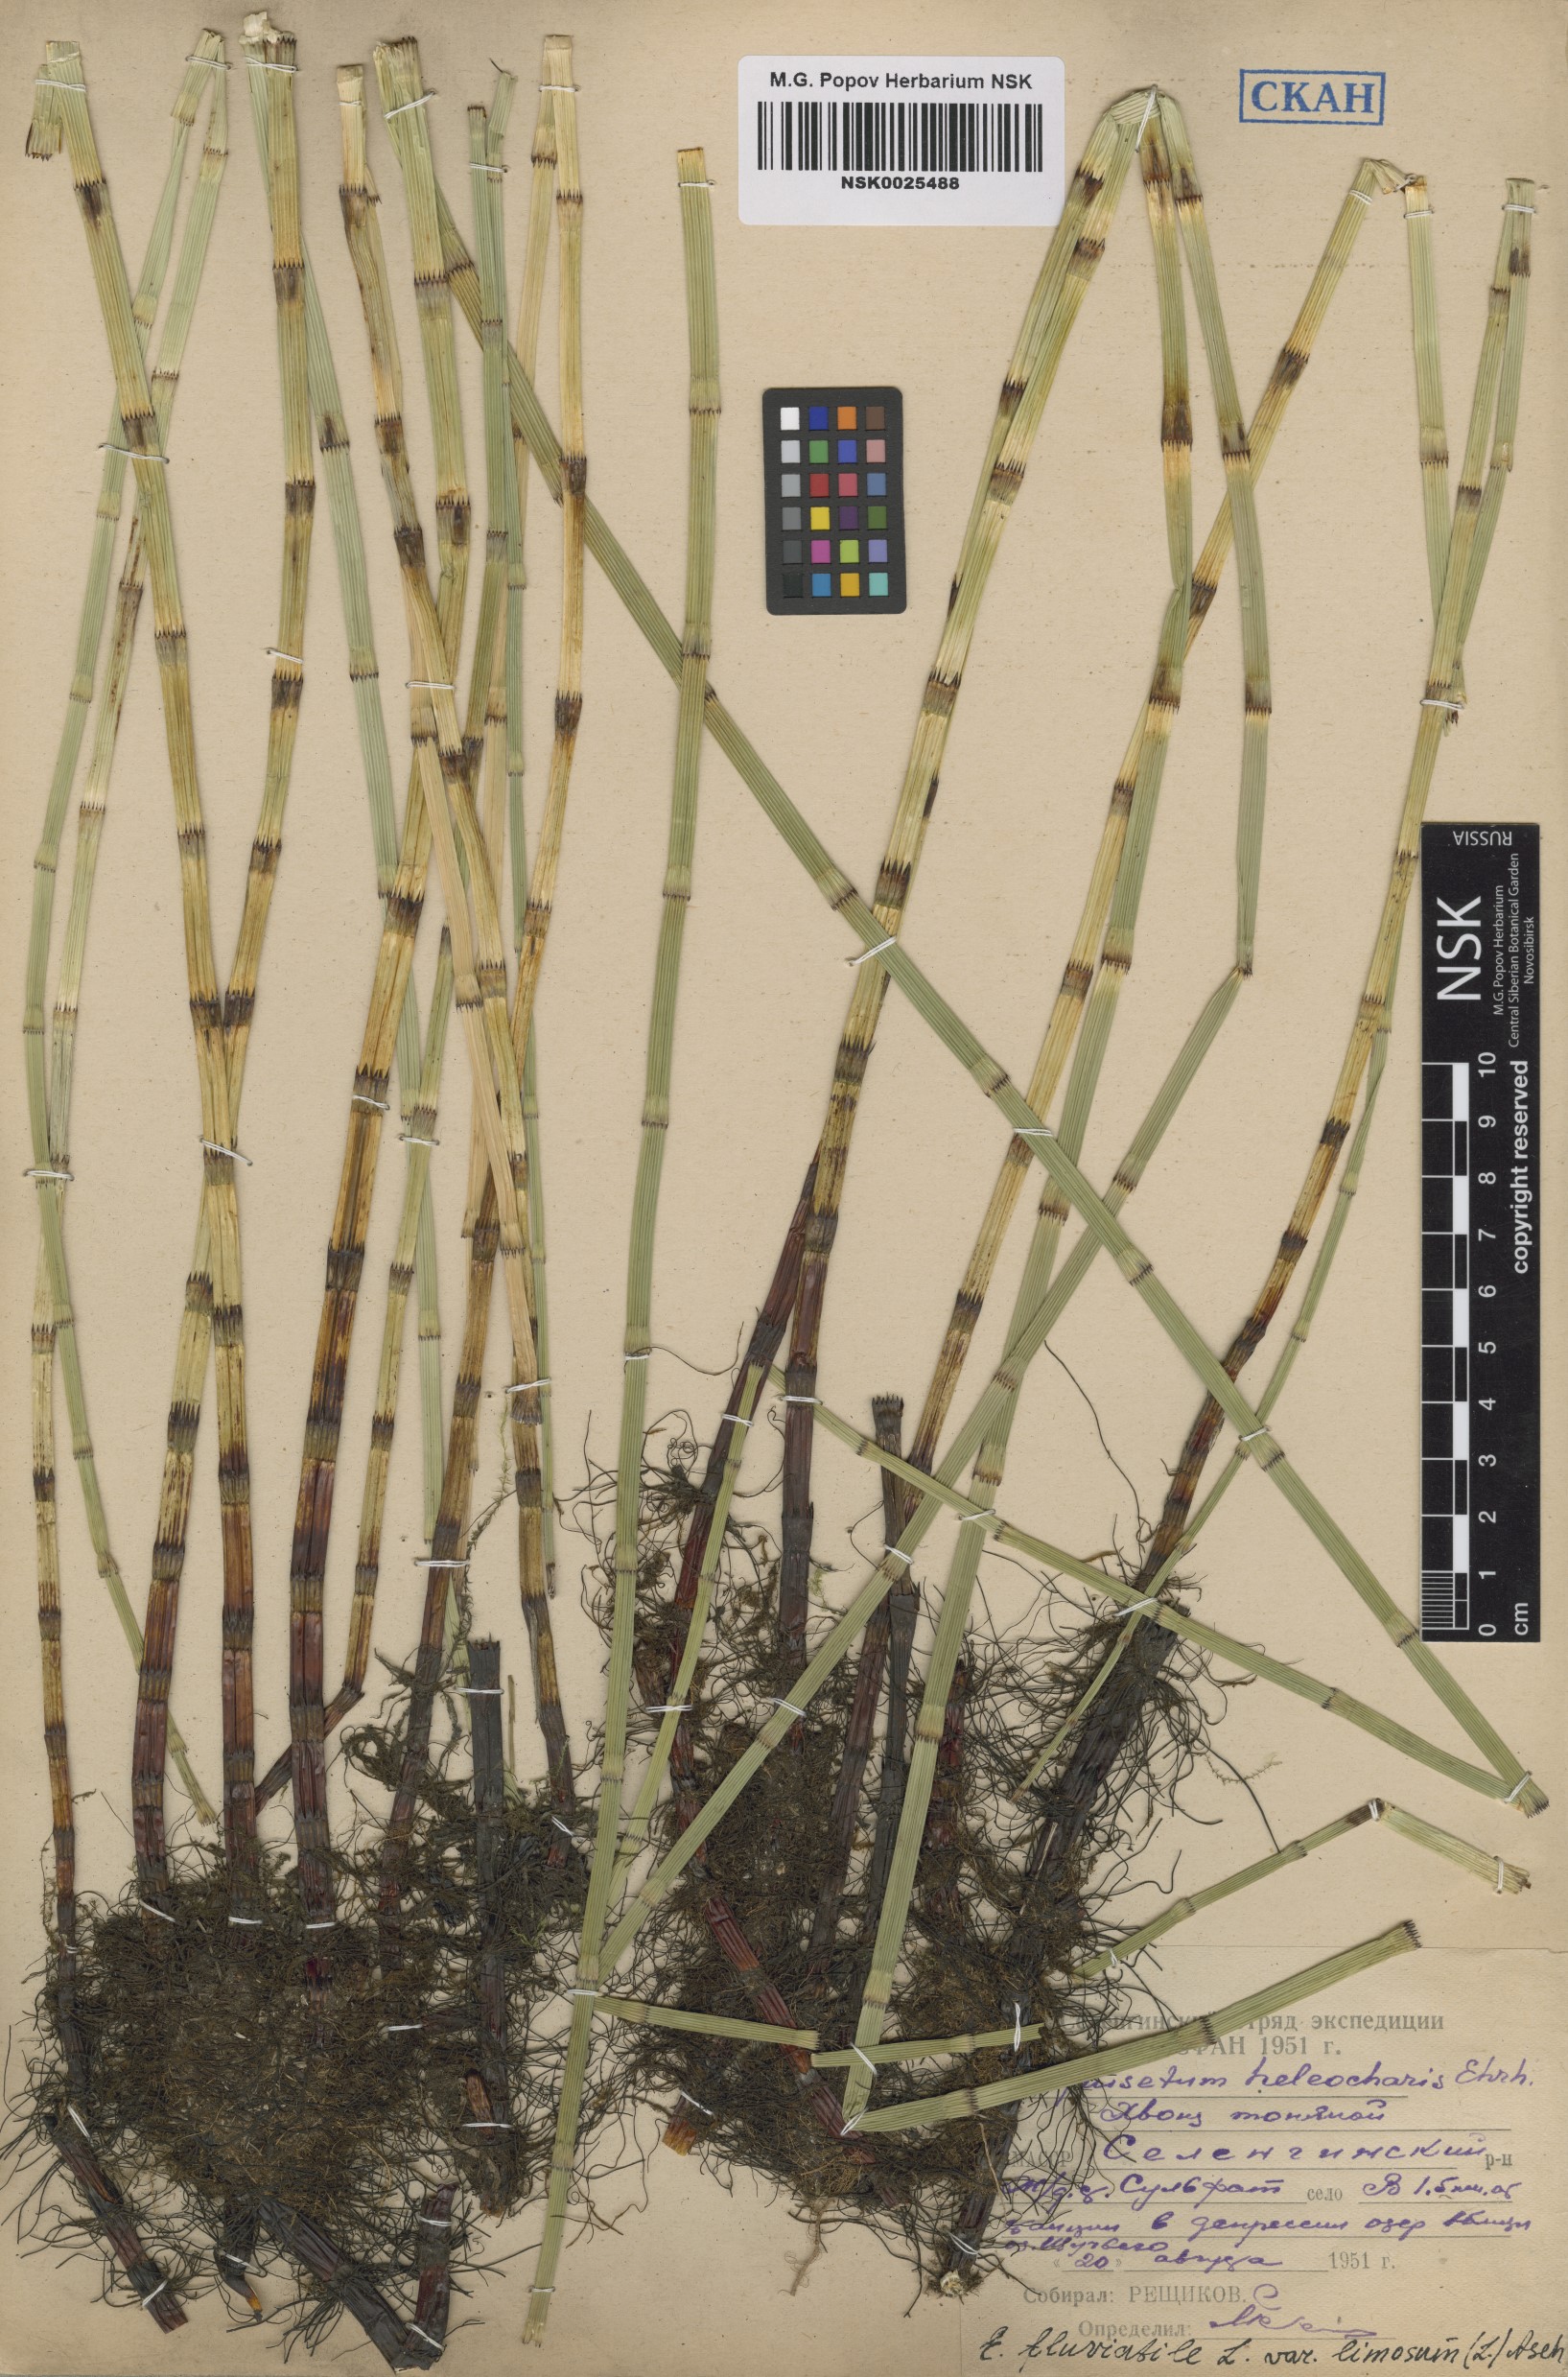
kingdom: Plantae
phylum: Tracheophyta
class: Polypodiopsida
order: Equisetales
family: Equisetaceae
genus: Equisetum
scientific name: Equisetum fluviatile
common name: Water horsetail
